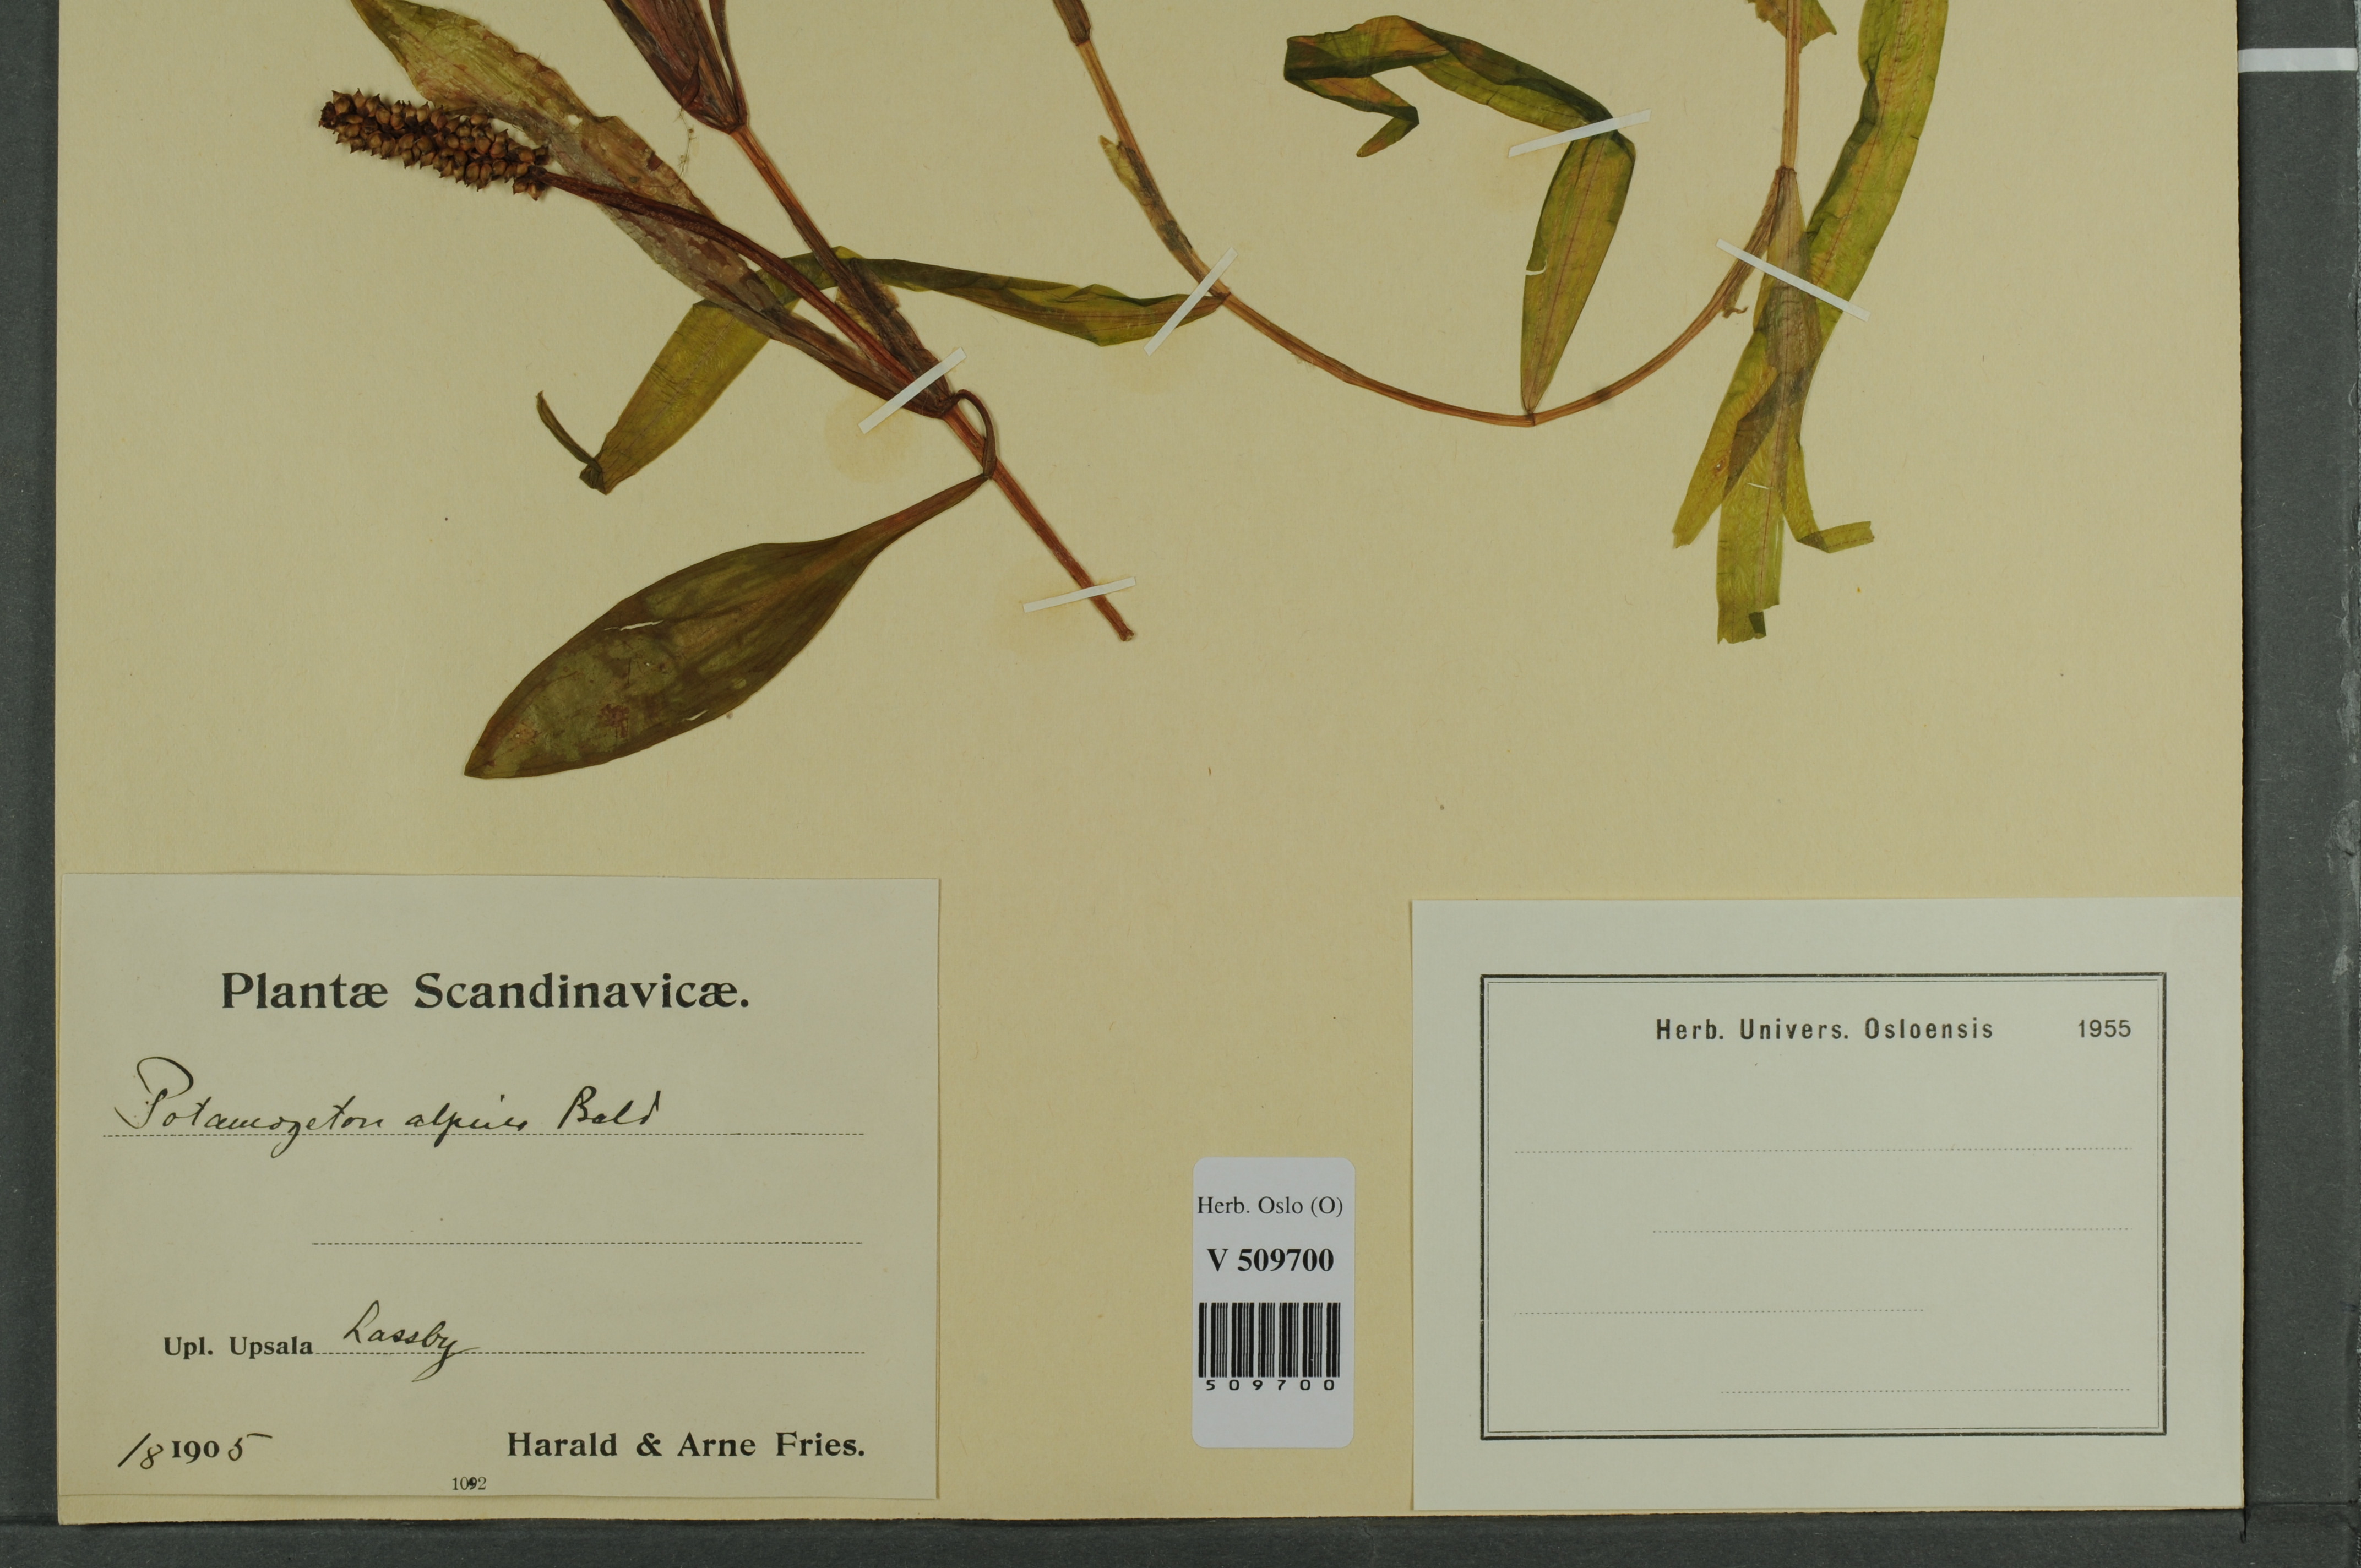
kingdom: Plantae
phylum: Tracheophyta
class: Liliopsida
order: Alismatales
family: Potamogetonaceae
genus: Potamogeton
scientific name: Potamogeton alpinus
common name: Red pondweed
